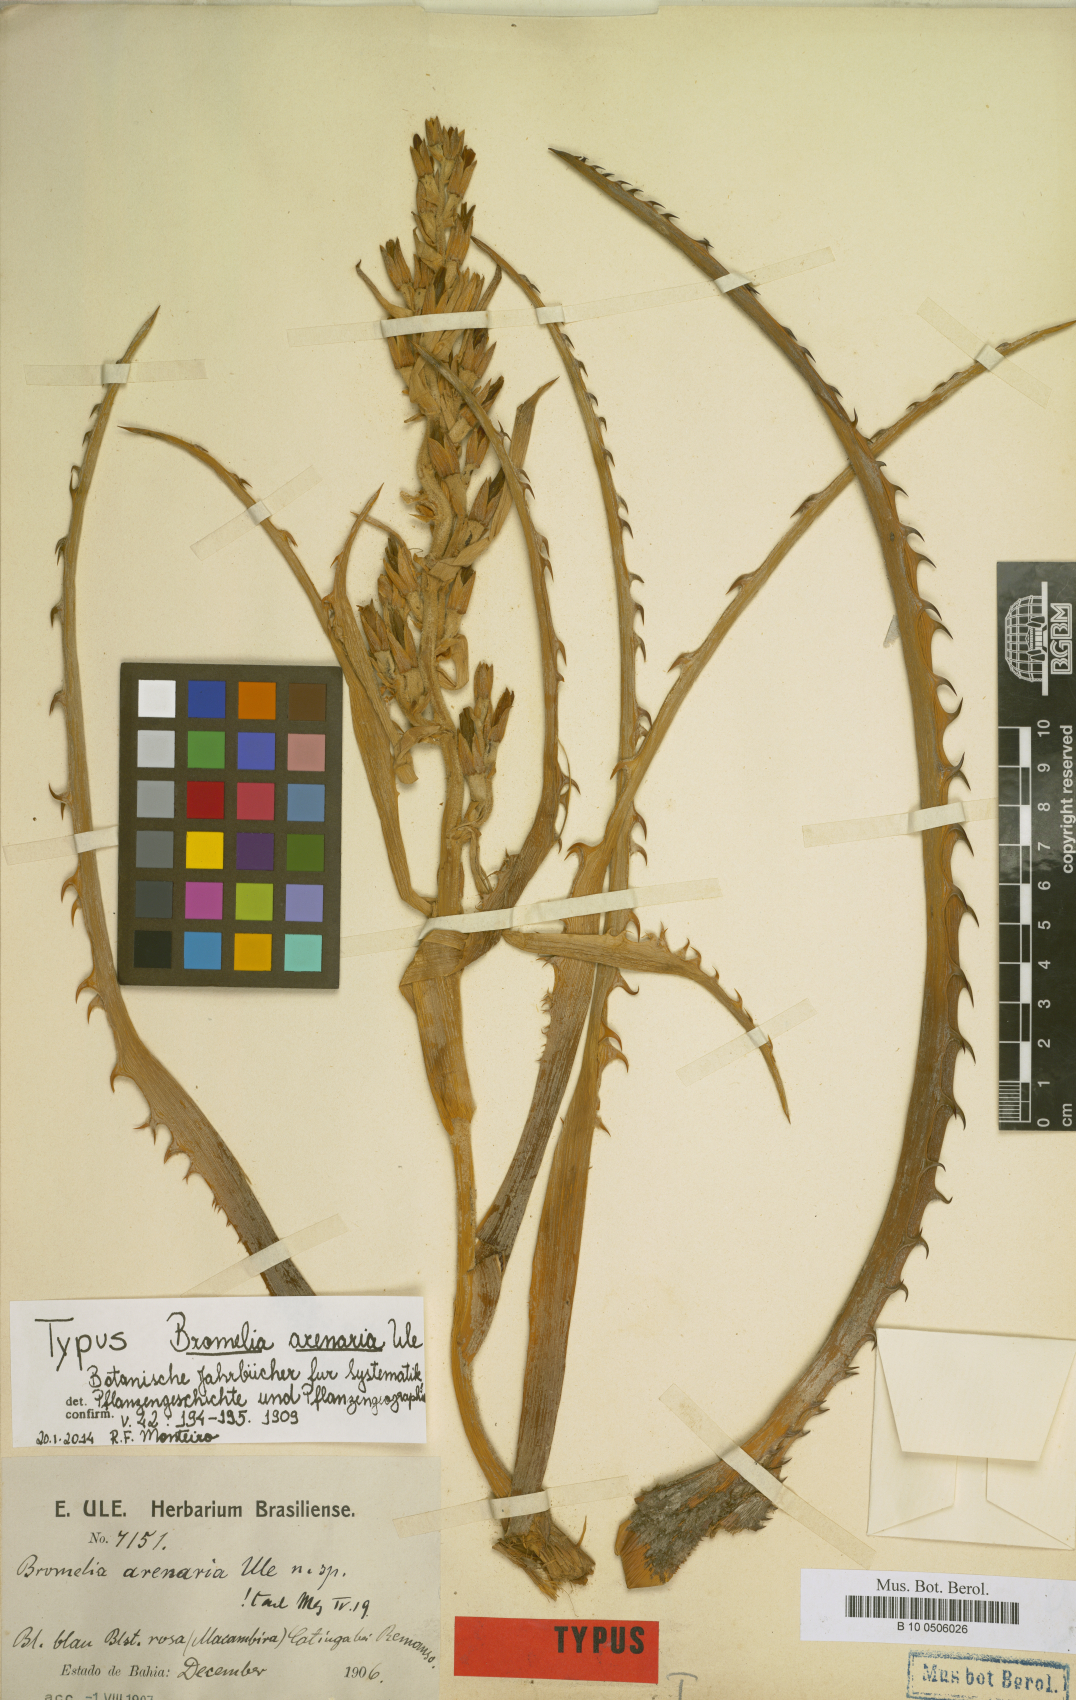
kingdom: Plantae
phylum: Tracheophyta
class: Liliopsida
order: Poales
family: Bromeliaceae
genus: Bromelia
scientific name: Bromelia arenaria
